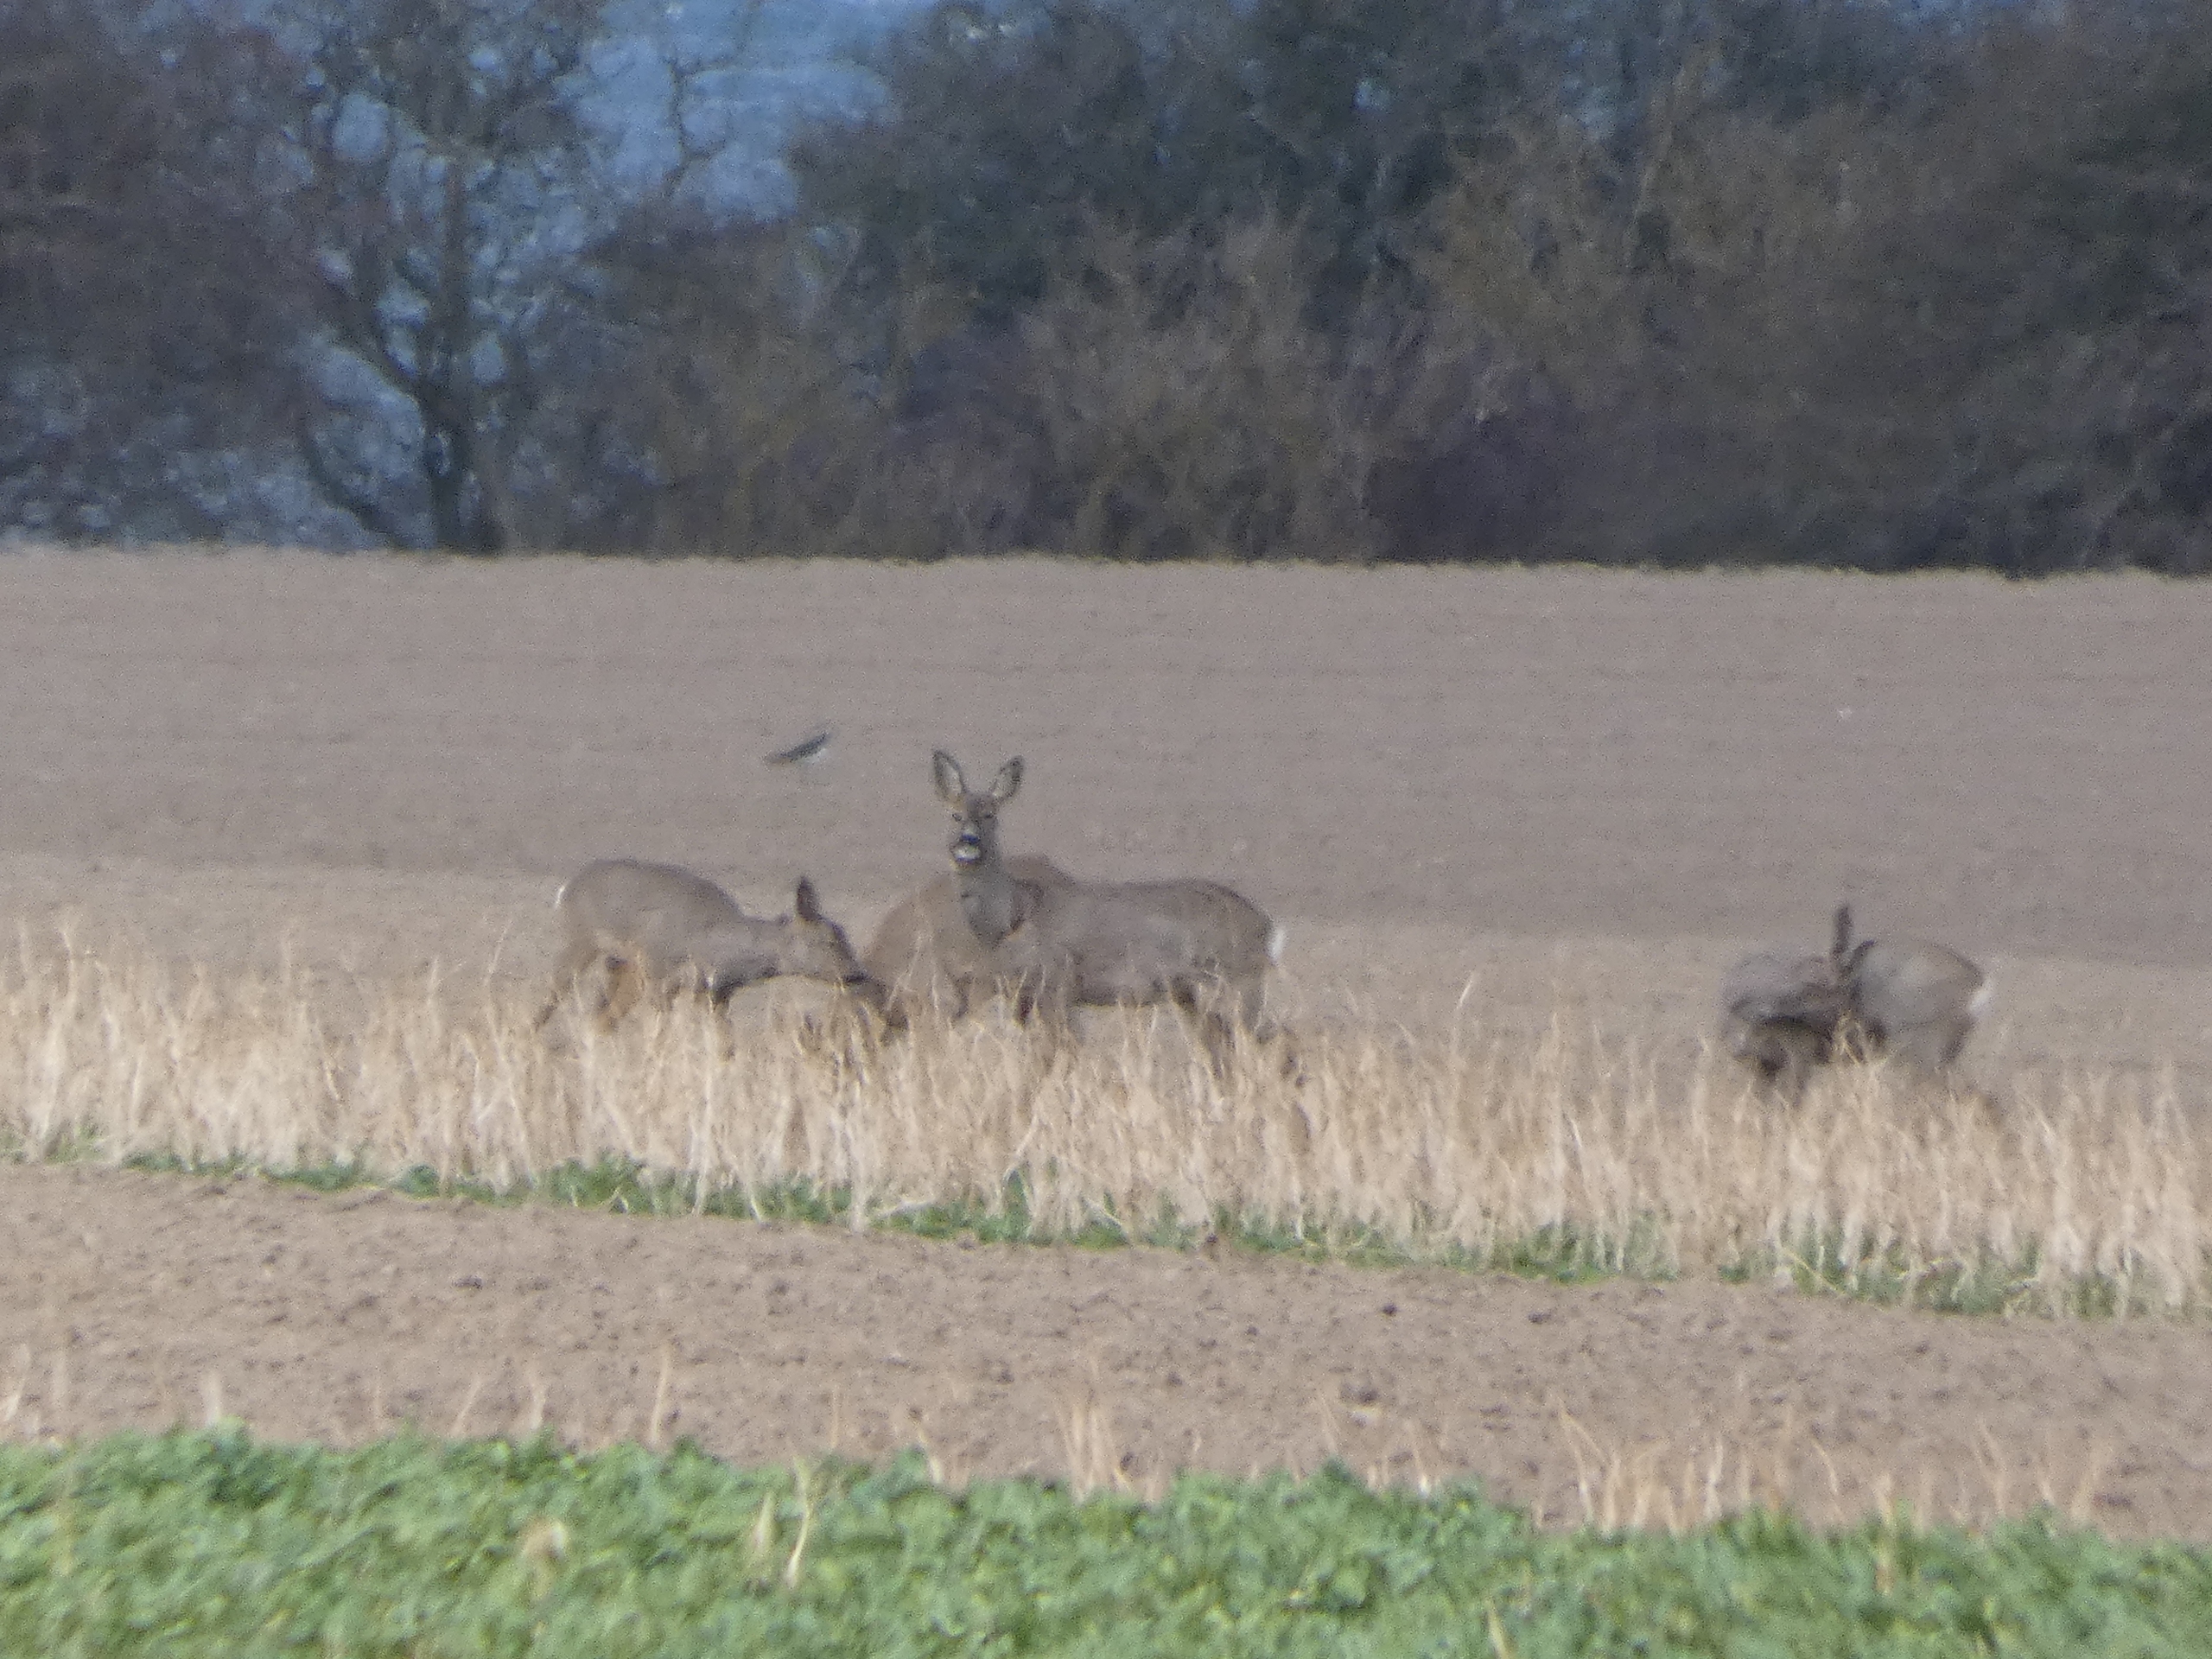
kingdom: Animalia
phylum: Chordata
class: Mammalia
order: Artiodactyla
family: Cervidae
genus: Capreolus
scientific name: Capreolus capreolus
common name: Rådyr
